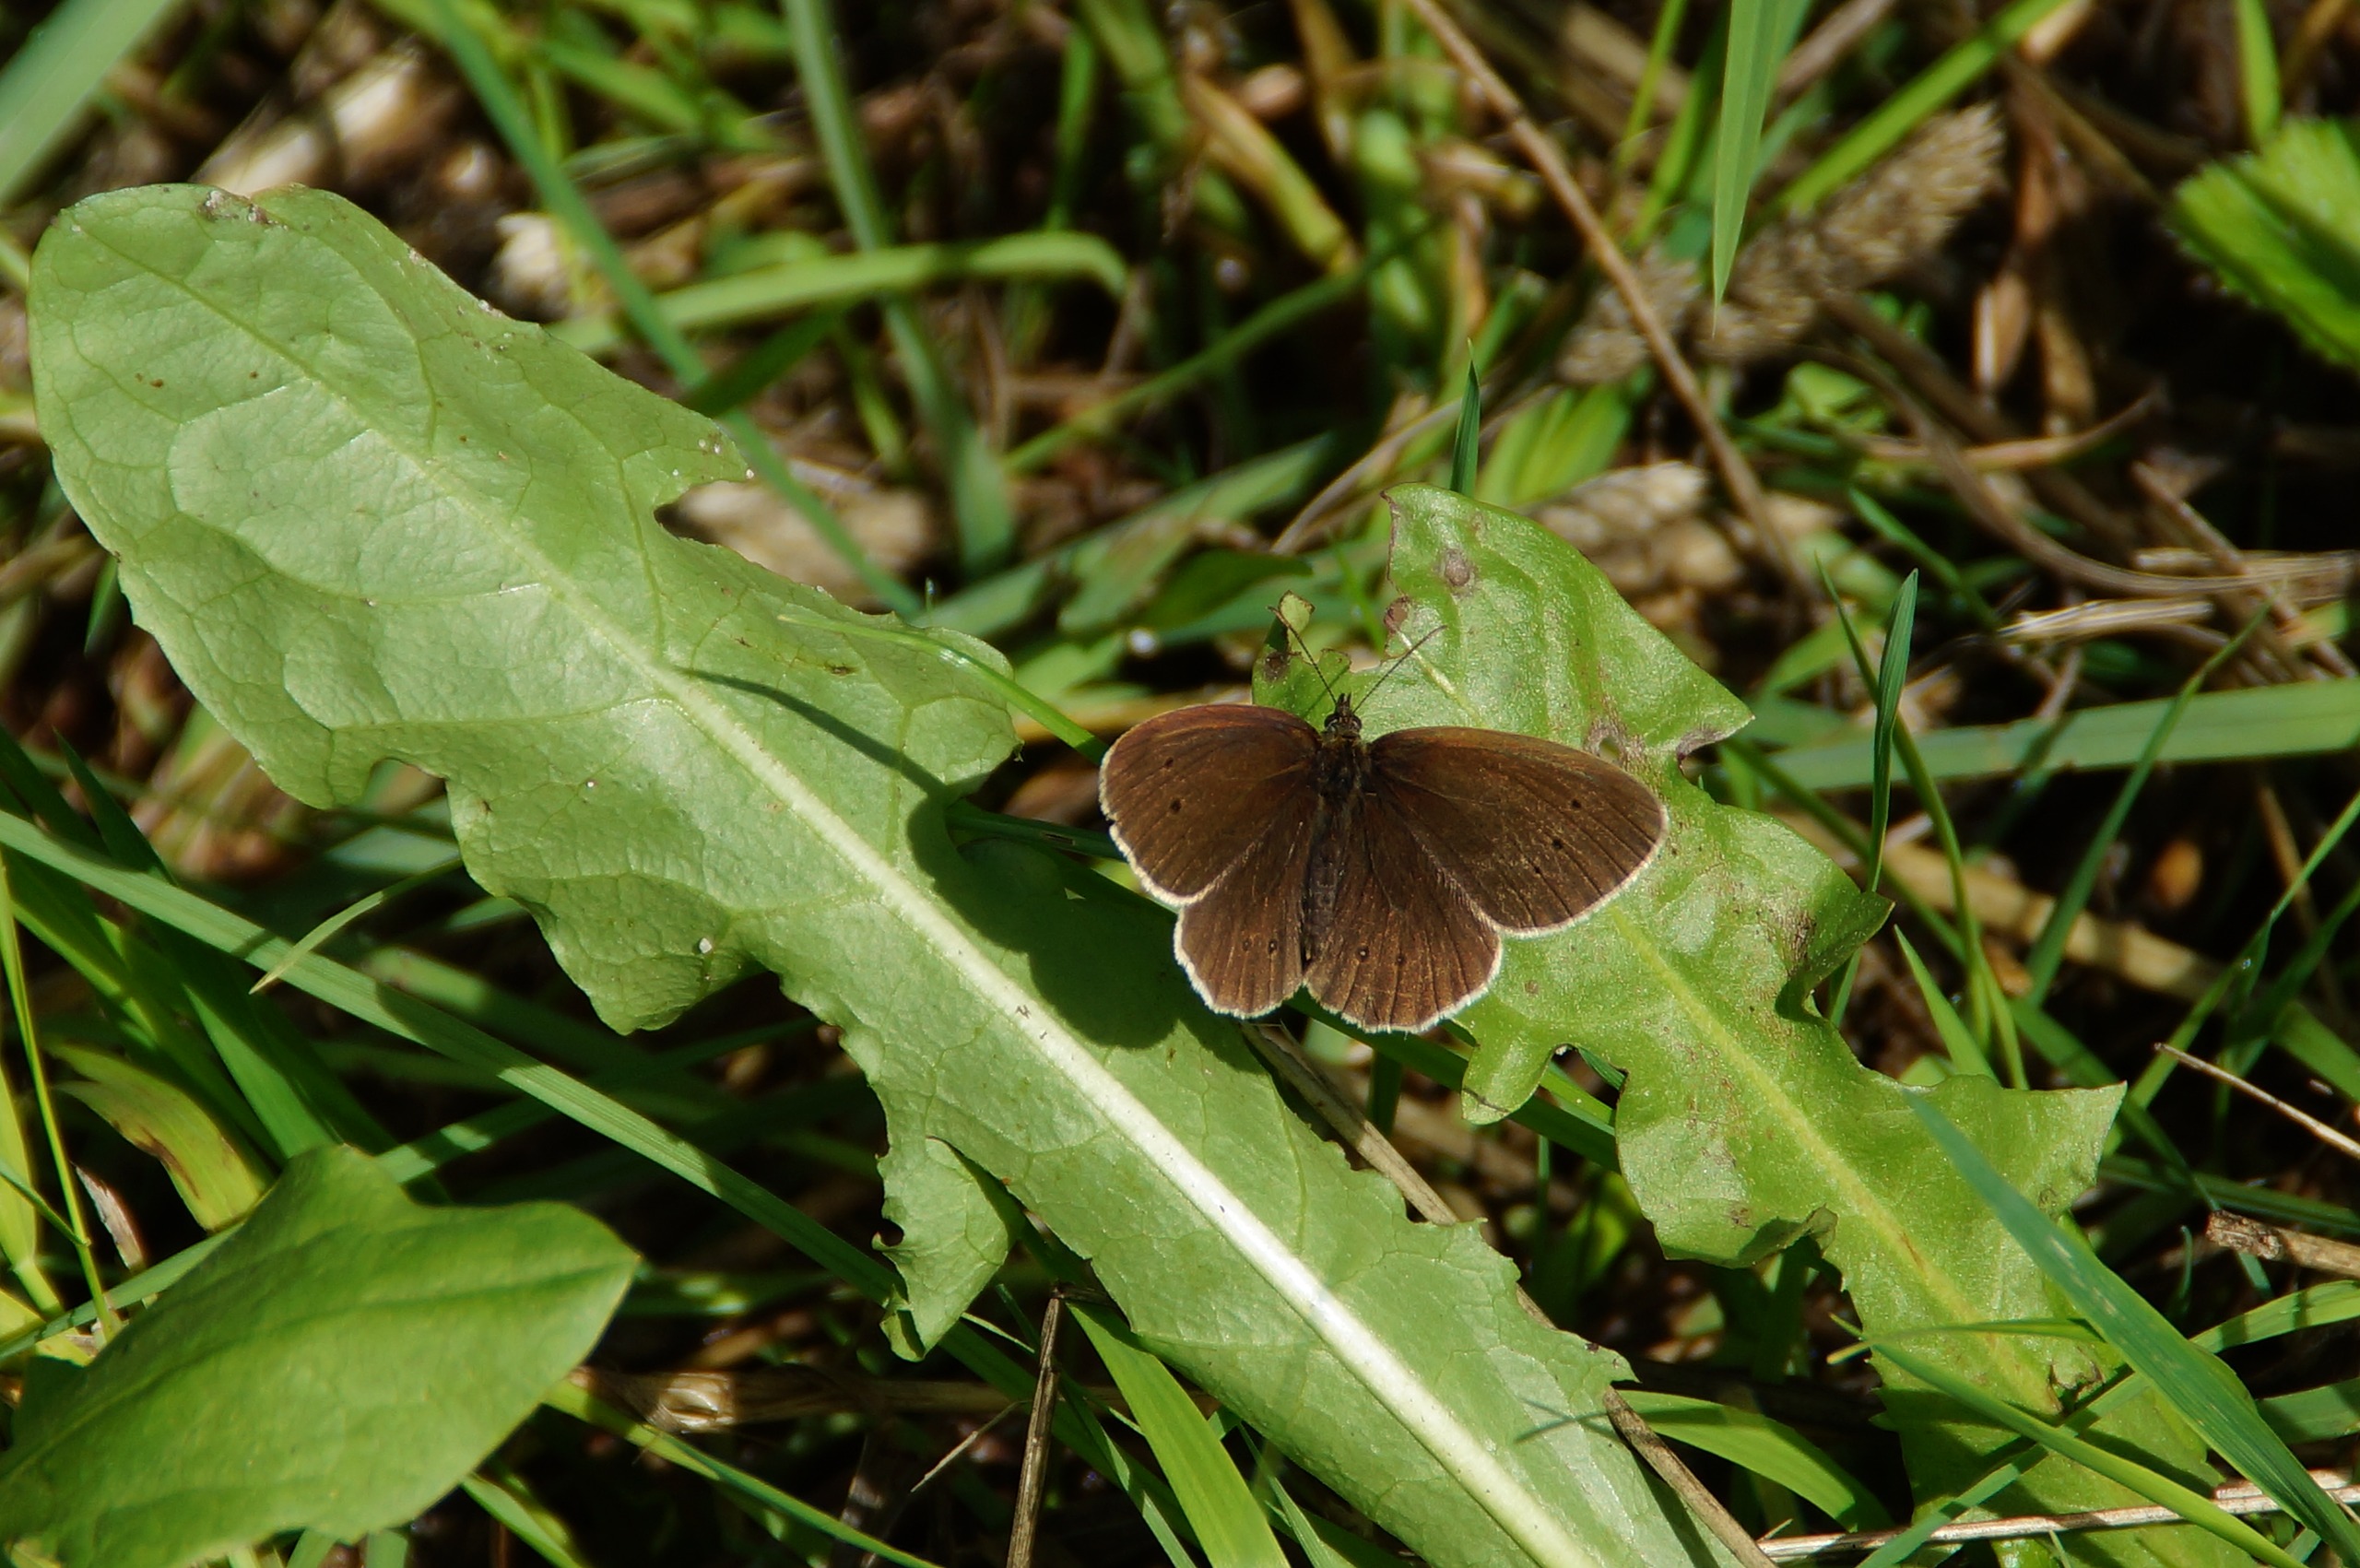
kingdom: Animalia
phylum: Arthropoda
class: Insecta
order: Lepidoptera
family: Nymphalidae
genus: Aphantopus
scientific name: Aphantopus hyperantus
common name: Engrandøje
